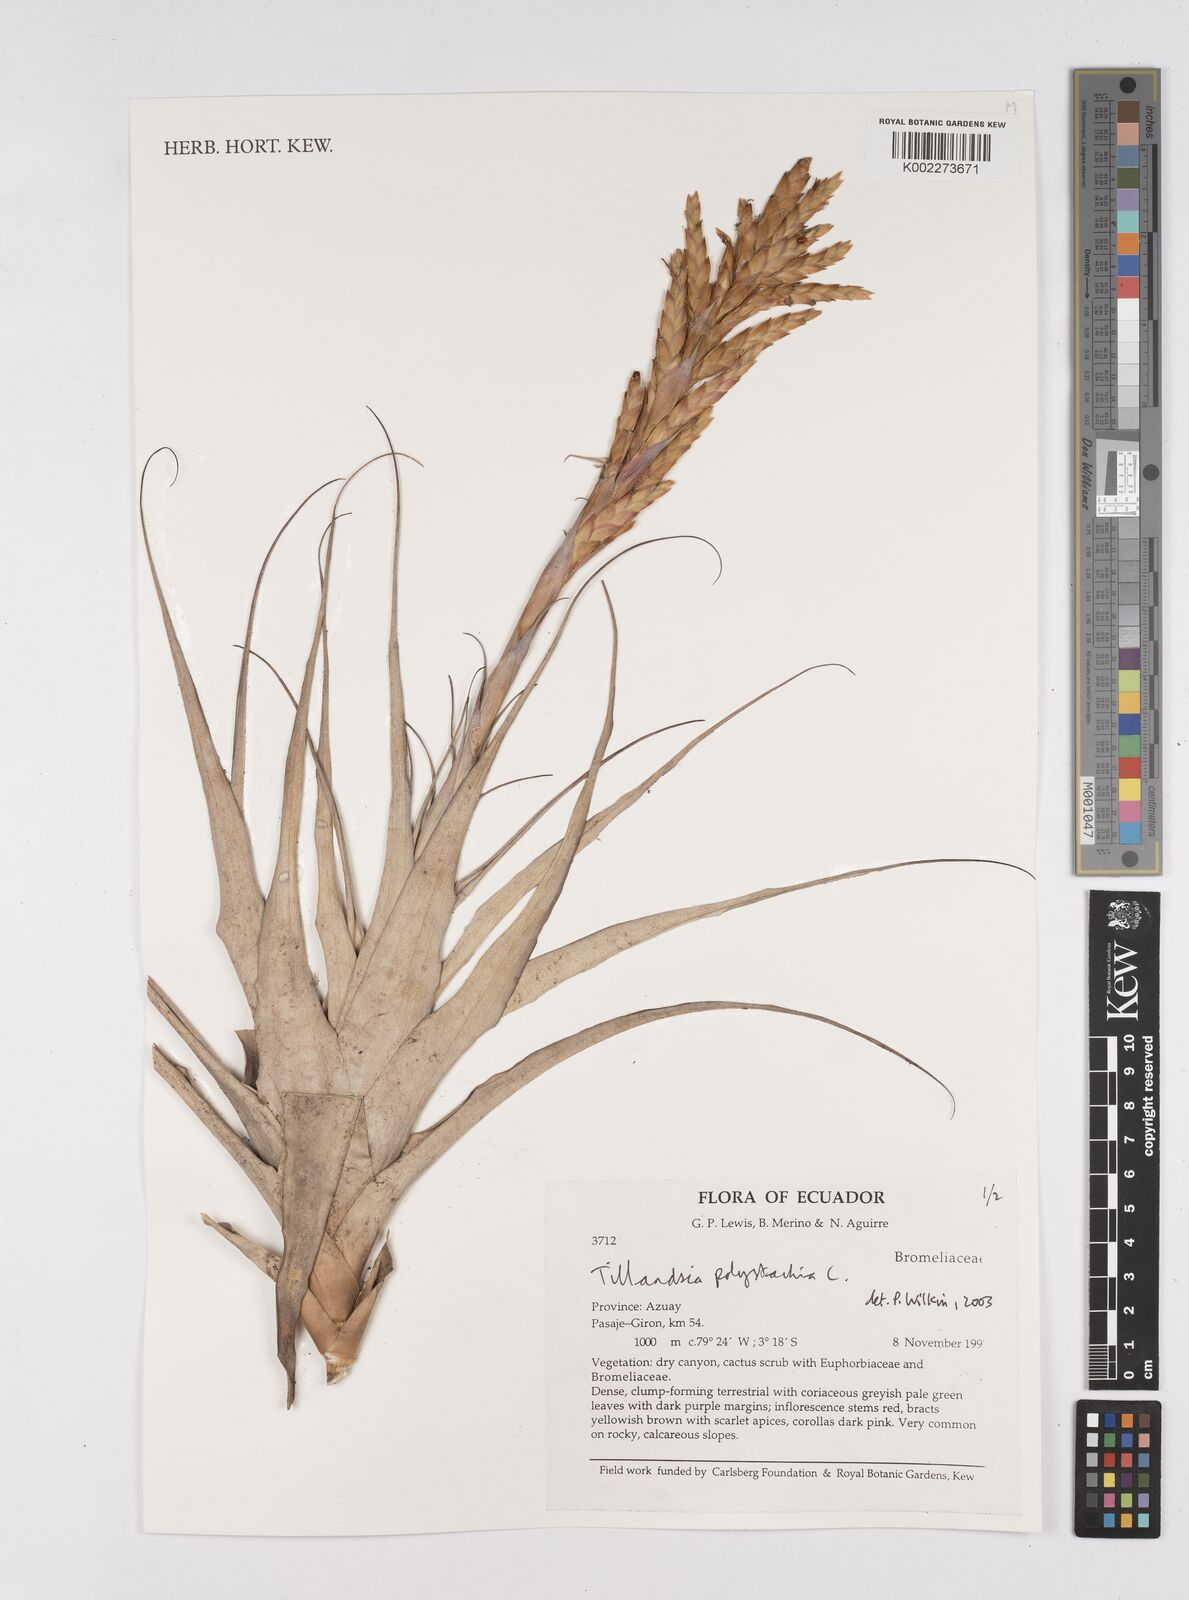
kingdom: Plantae
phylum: Tracheophyta
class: Liliopsida
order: Poales
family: Bromeliaceae
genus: Tillandsia
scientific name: Tillandsia polystachia
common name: Airplant
